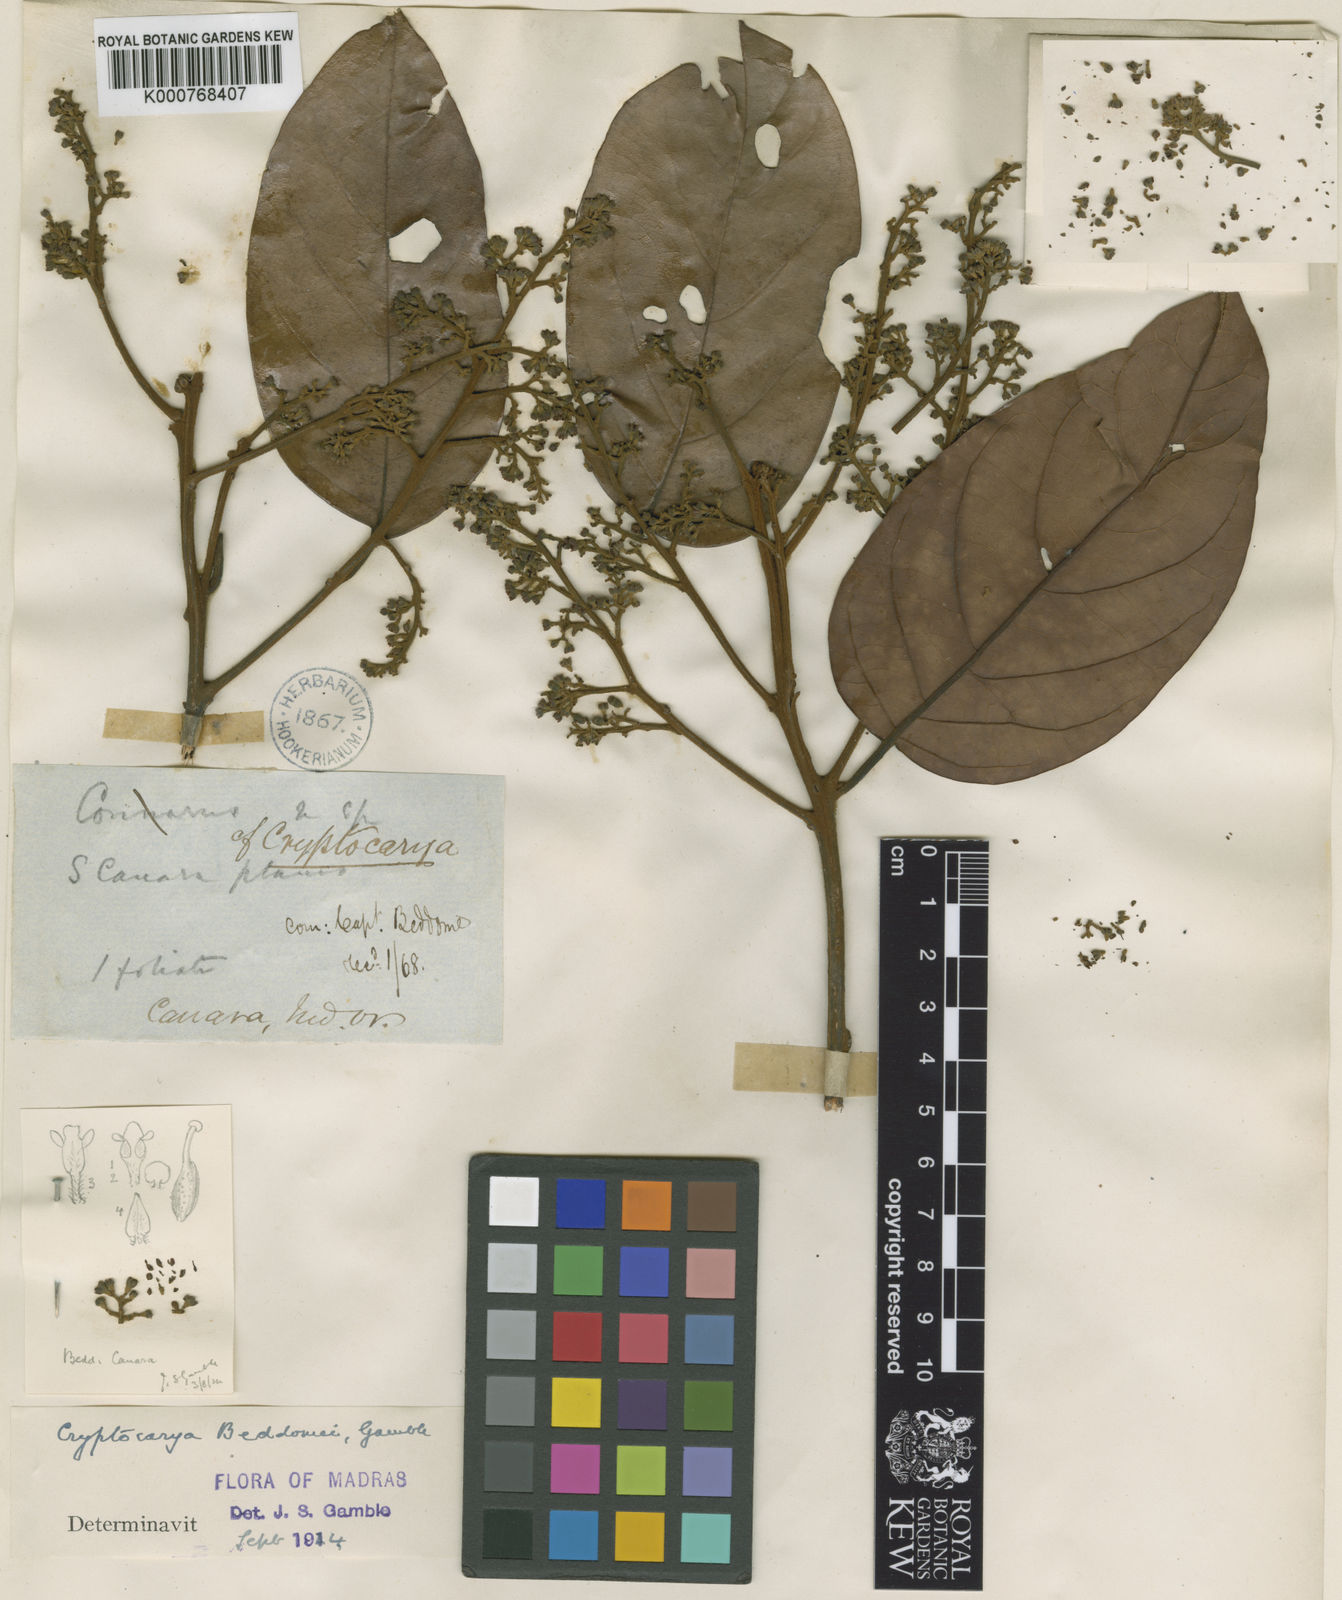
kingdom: Plantae
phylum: Tracheophyta
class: Magnoliopsida
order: Laurales
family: Lauraceae
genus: Cryptocarya
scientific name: Cryptocarya beddomei
